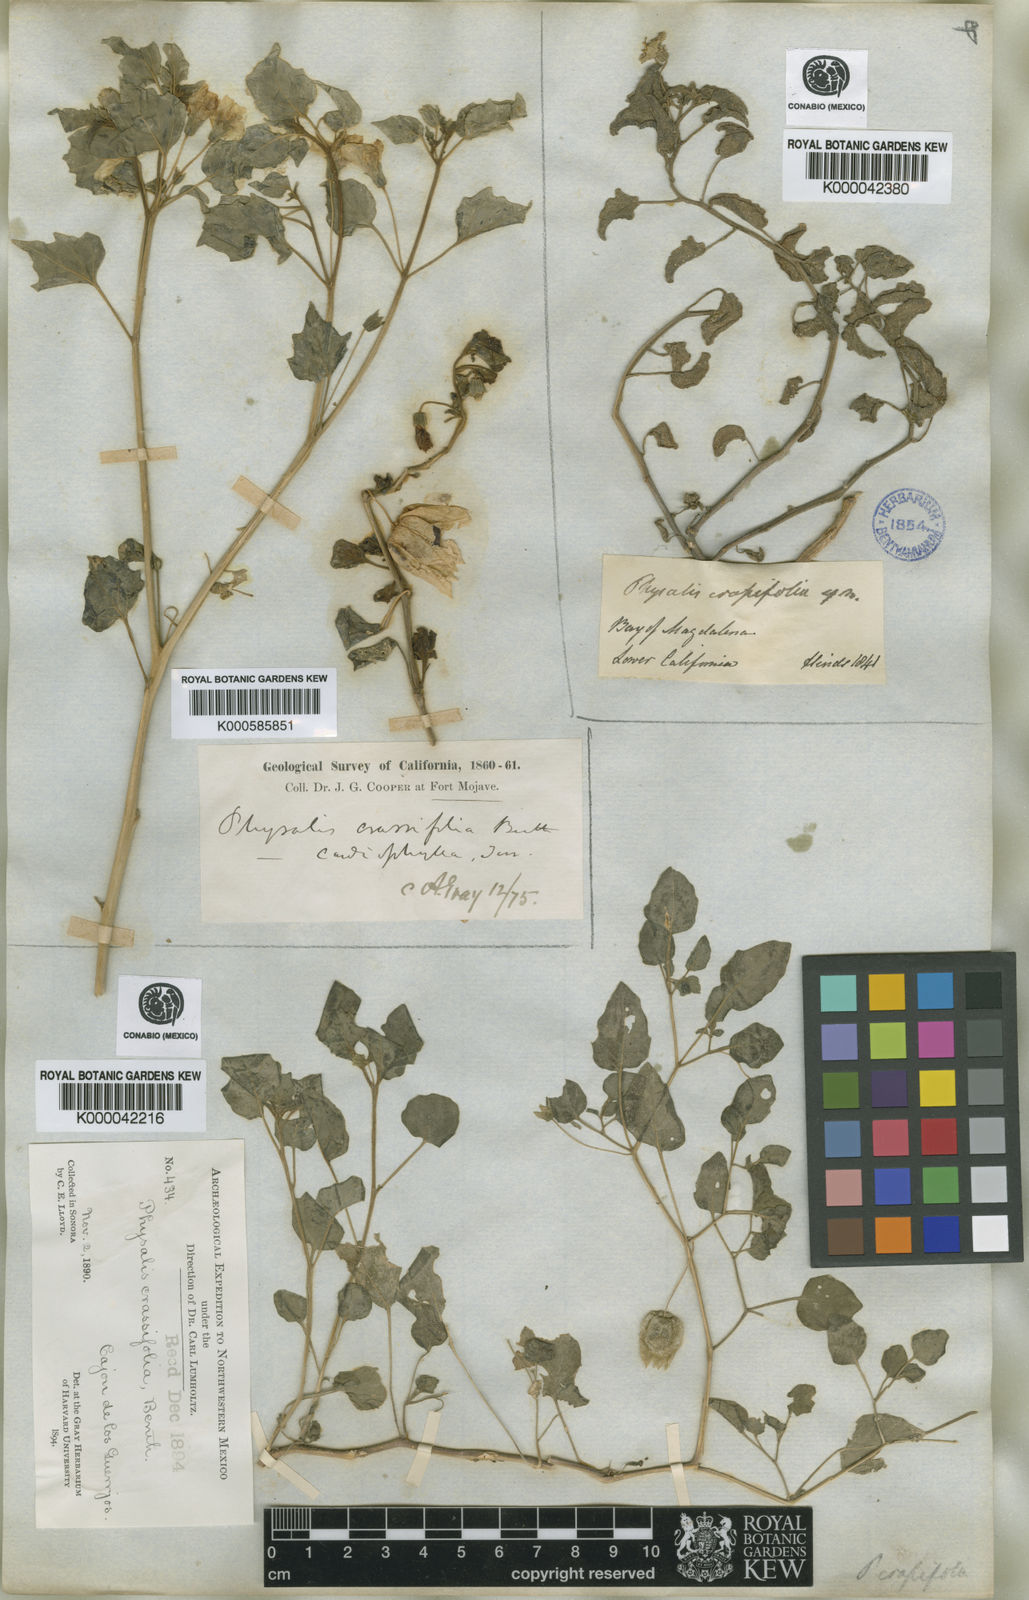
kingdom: Plantae
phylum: Tracheophyta
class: Magnoliopsida
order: Solanales
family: Solanaceae
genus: Physalis
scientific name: Physalis crassifolia
